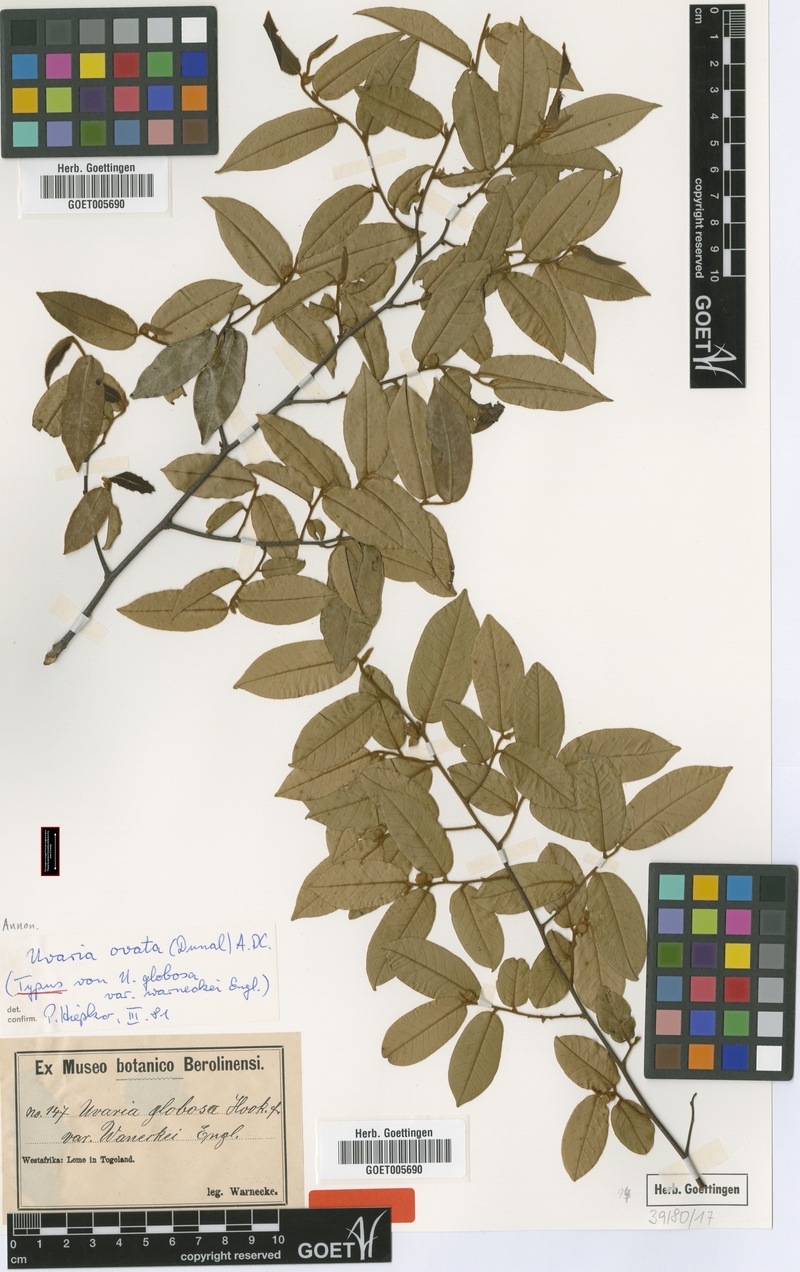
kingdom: Plantae
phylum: Tracheophyta
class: Magnoliopsida
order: Magnoliales
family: Annonaceae
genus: Uvaria
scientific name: Uvaria ovata
